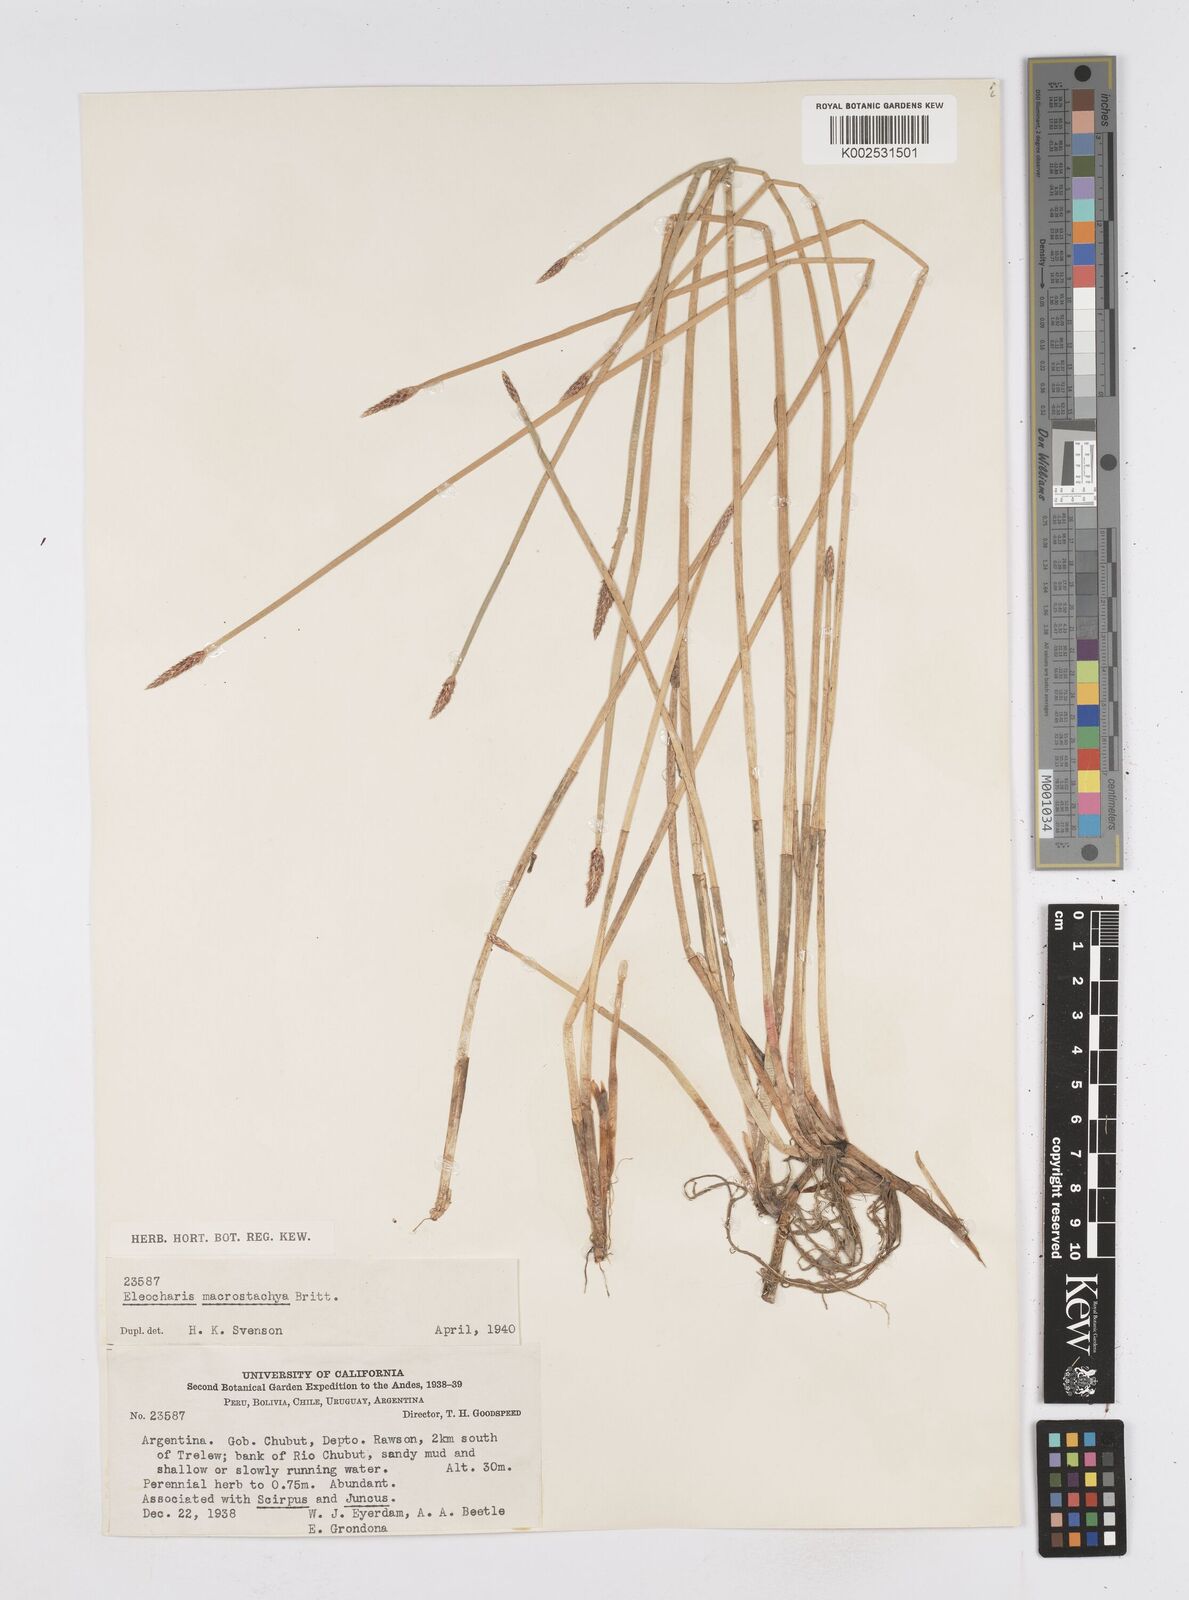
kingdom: Plantae
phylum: Tracheophyta
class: Liliopsida
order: Poales
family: Cyperaceae
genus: Eleocharis
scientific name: Eleocharis macrostachya
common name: Pale spikerush
